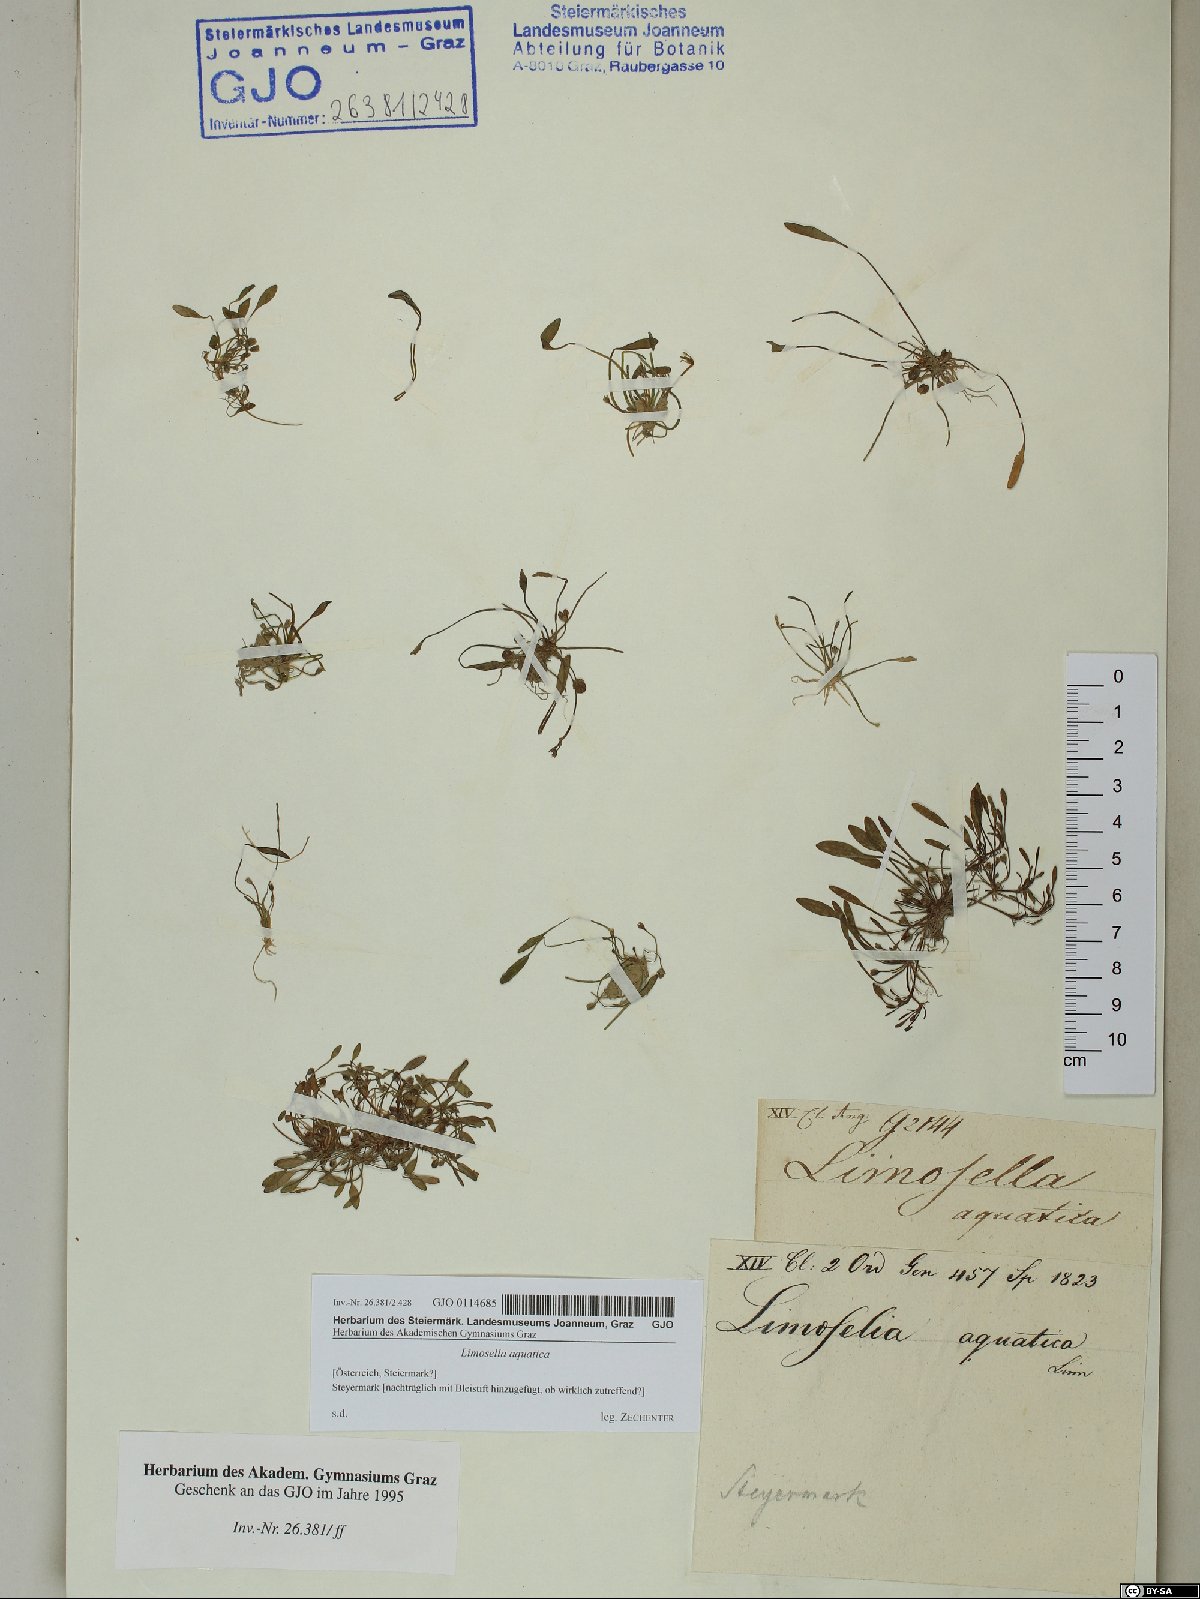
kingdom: Plantae
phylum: Tracheophyta
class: Magnoliopsida
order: Lamiales
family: Scrophulariaceae
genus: Limosella
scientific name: Limosella aquatica
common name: Mudwort
